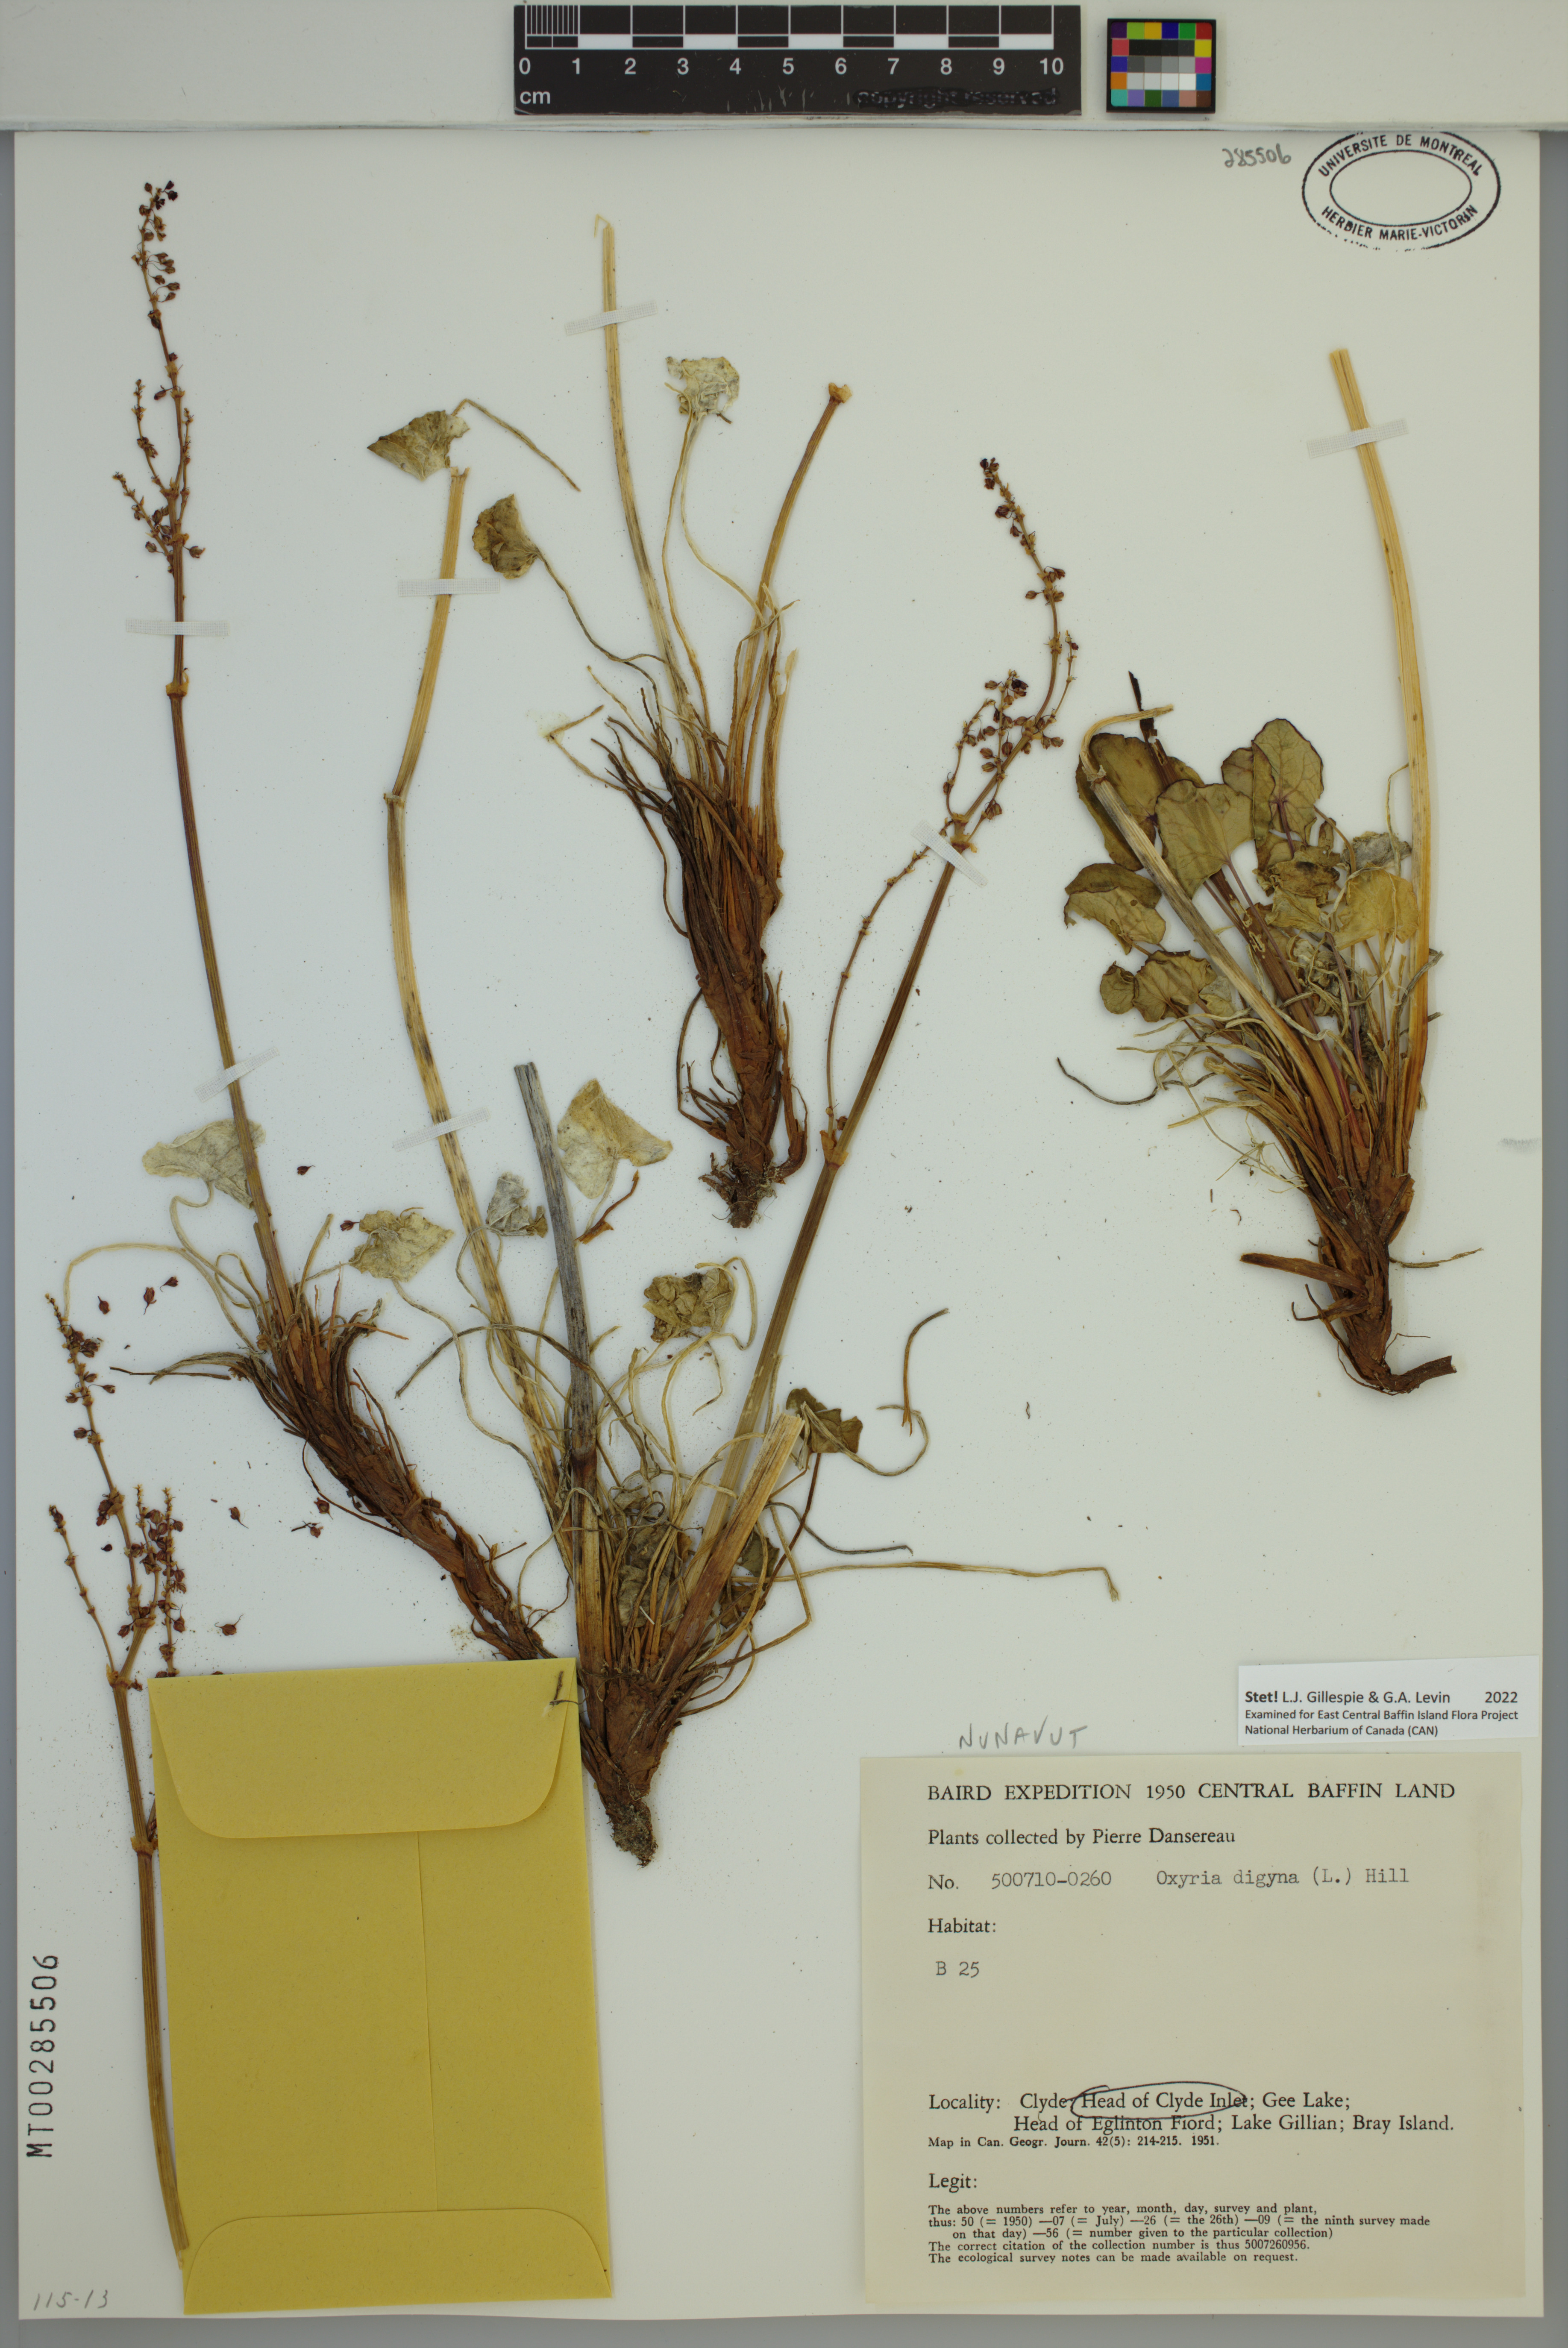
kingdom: Plantae
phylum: Tracheophyta
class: Magnoliopsida
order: Caryophyllales
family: Polygonaceae
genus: Oxyria
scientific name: Oxyria digyna
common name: Alpine mountain-sorrel
